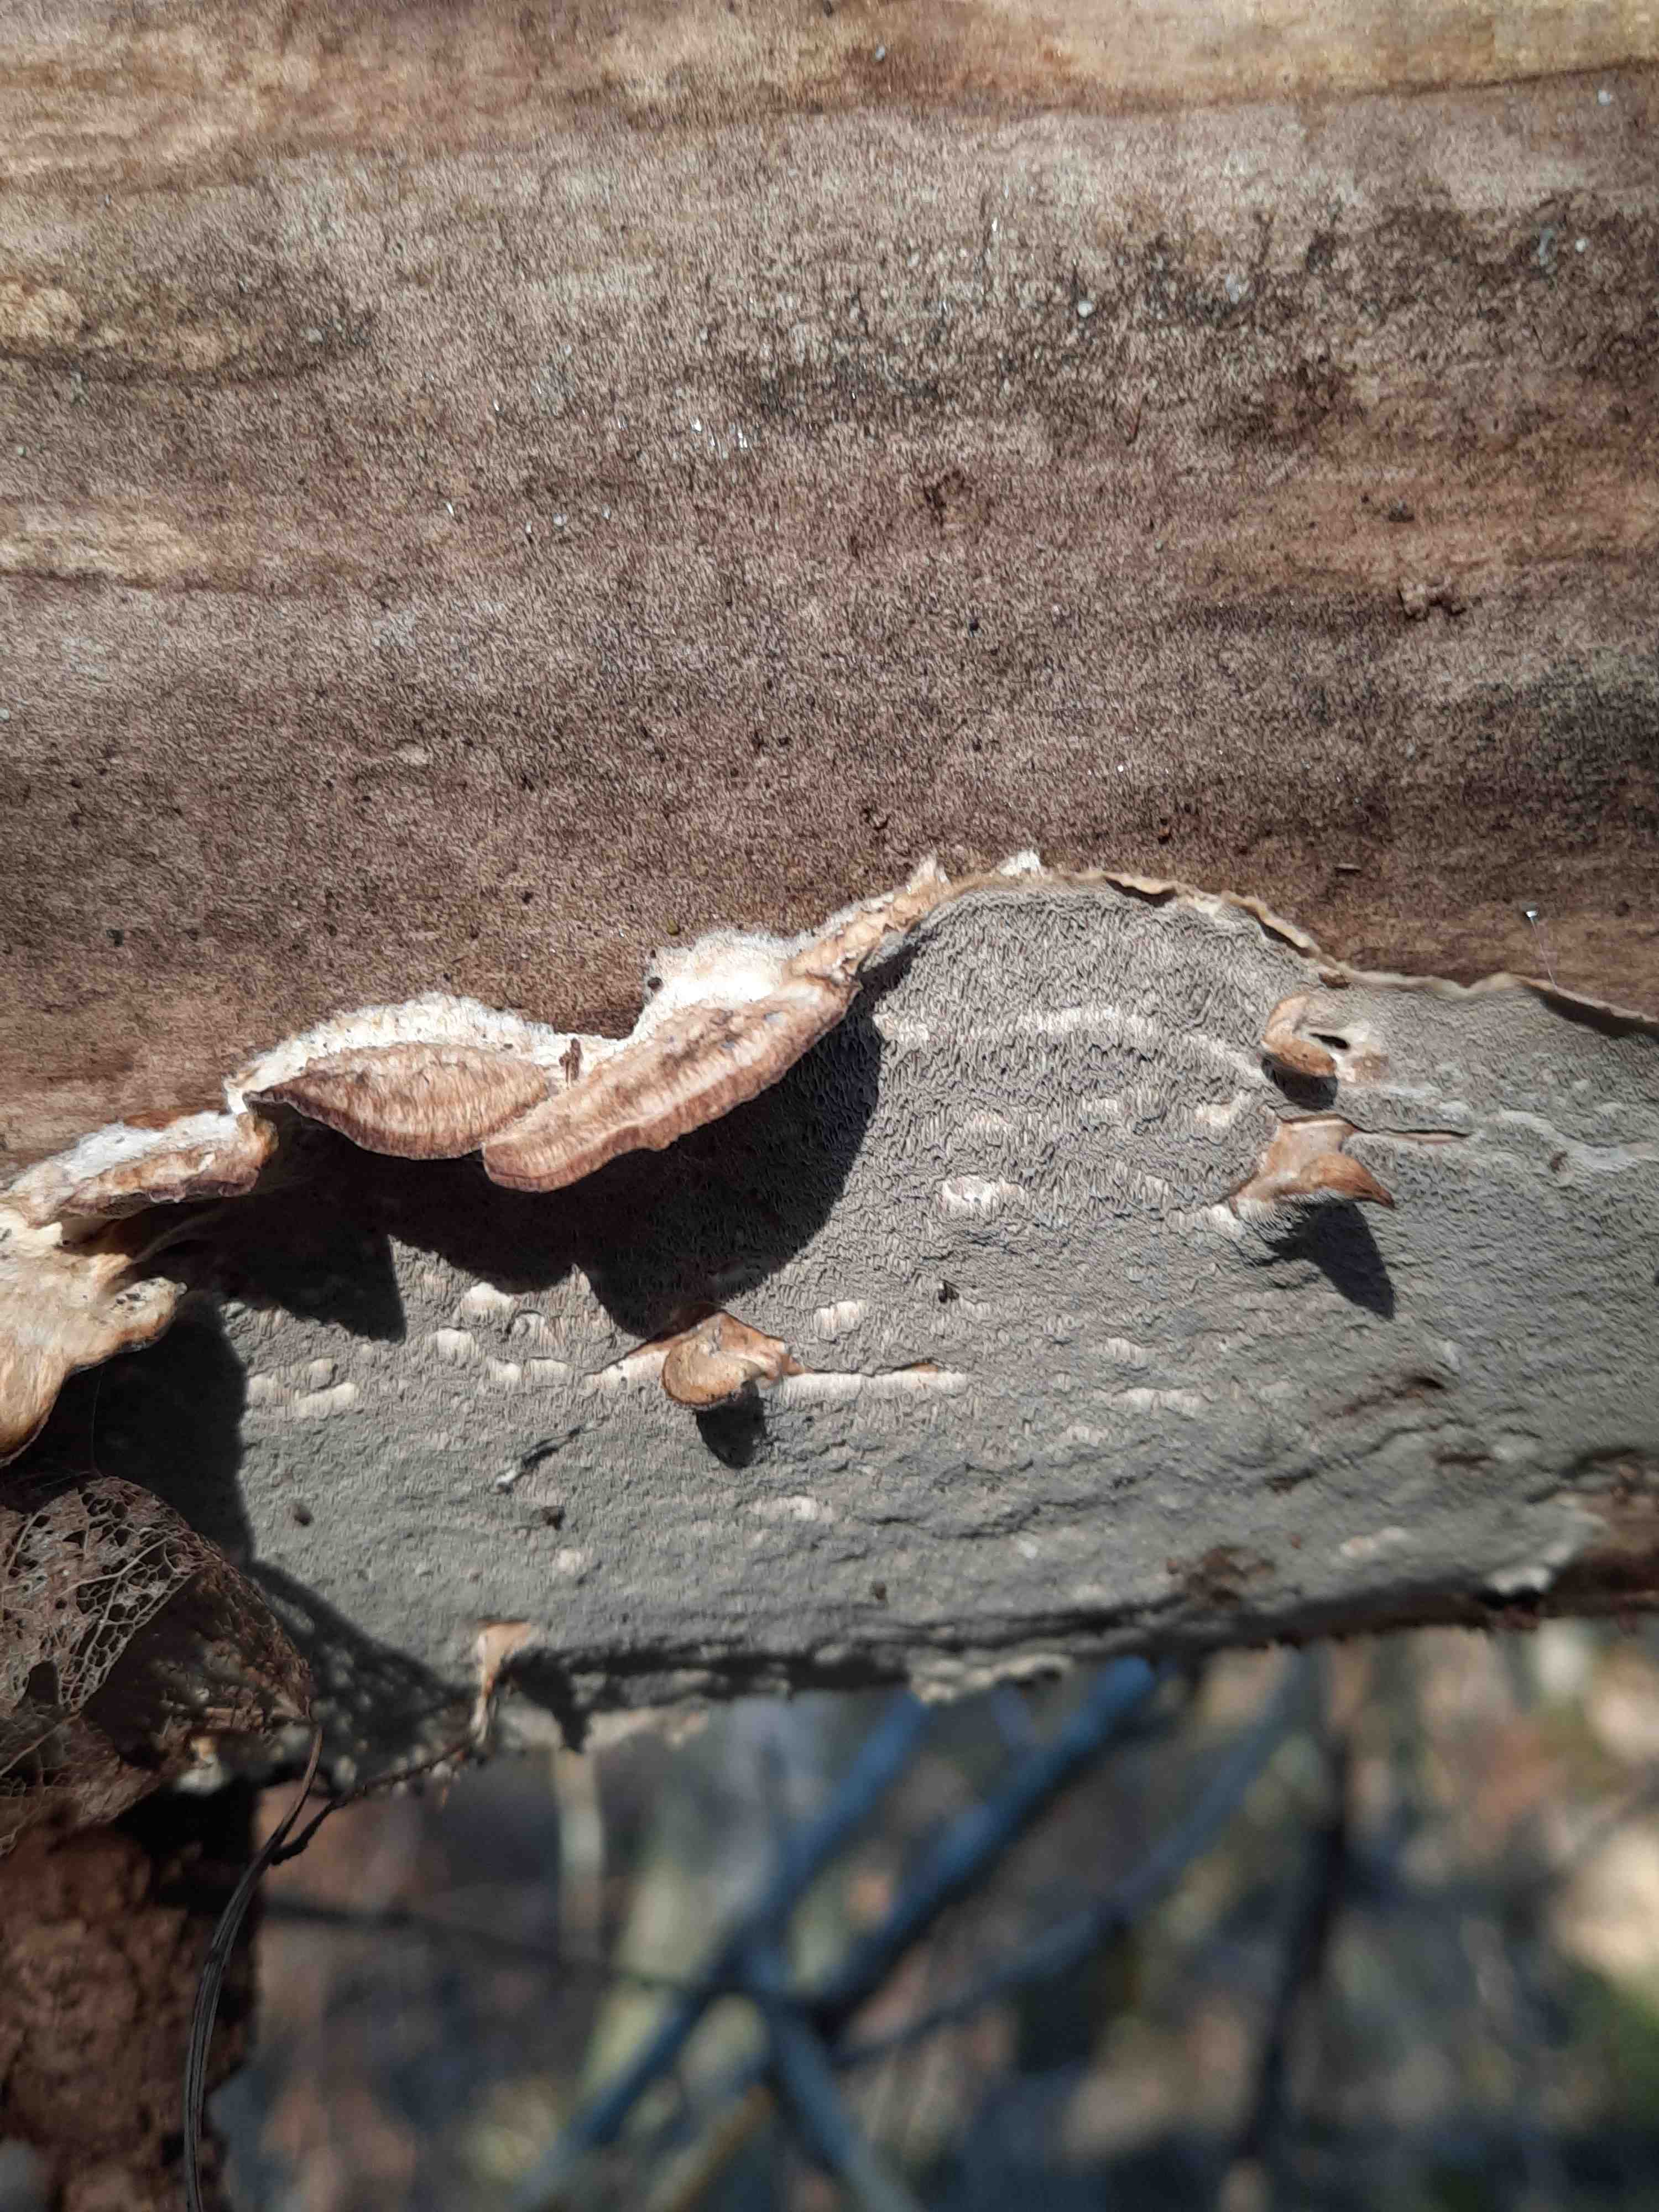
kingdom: Fungi
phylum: Basidiomycota
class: Agaricomycetes
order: Polyporales
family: Phanerochaetaceae
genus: Bjerkandera
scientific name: Bjerkandera adusta
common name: sveden sodporesvamp
